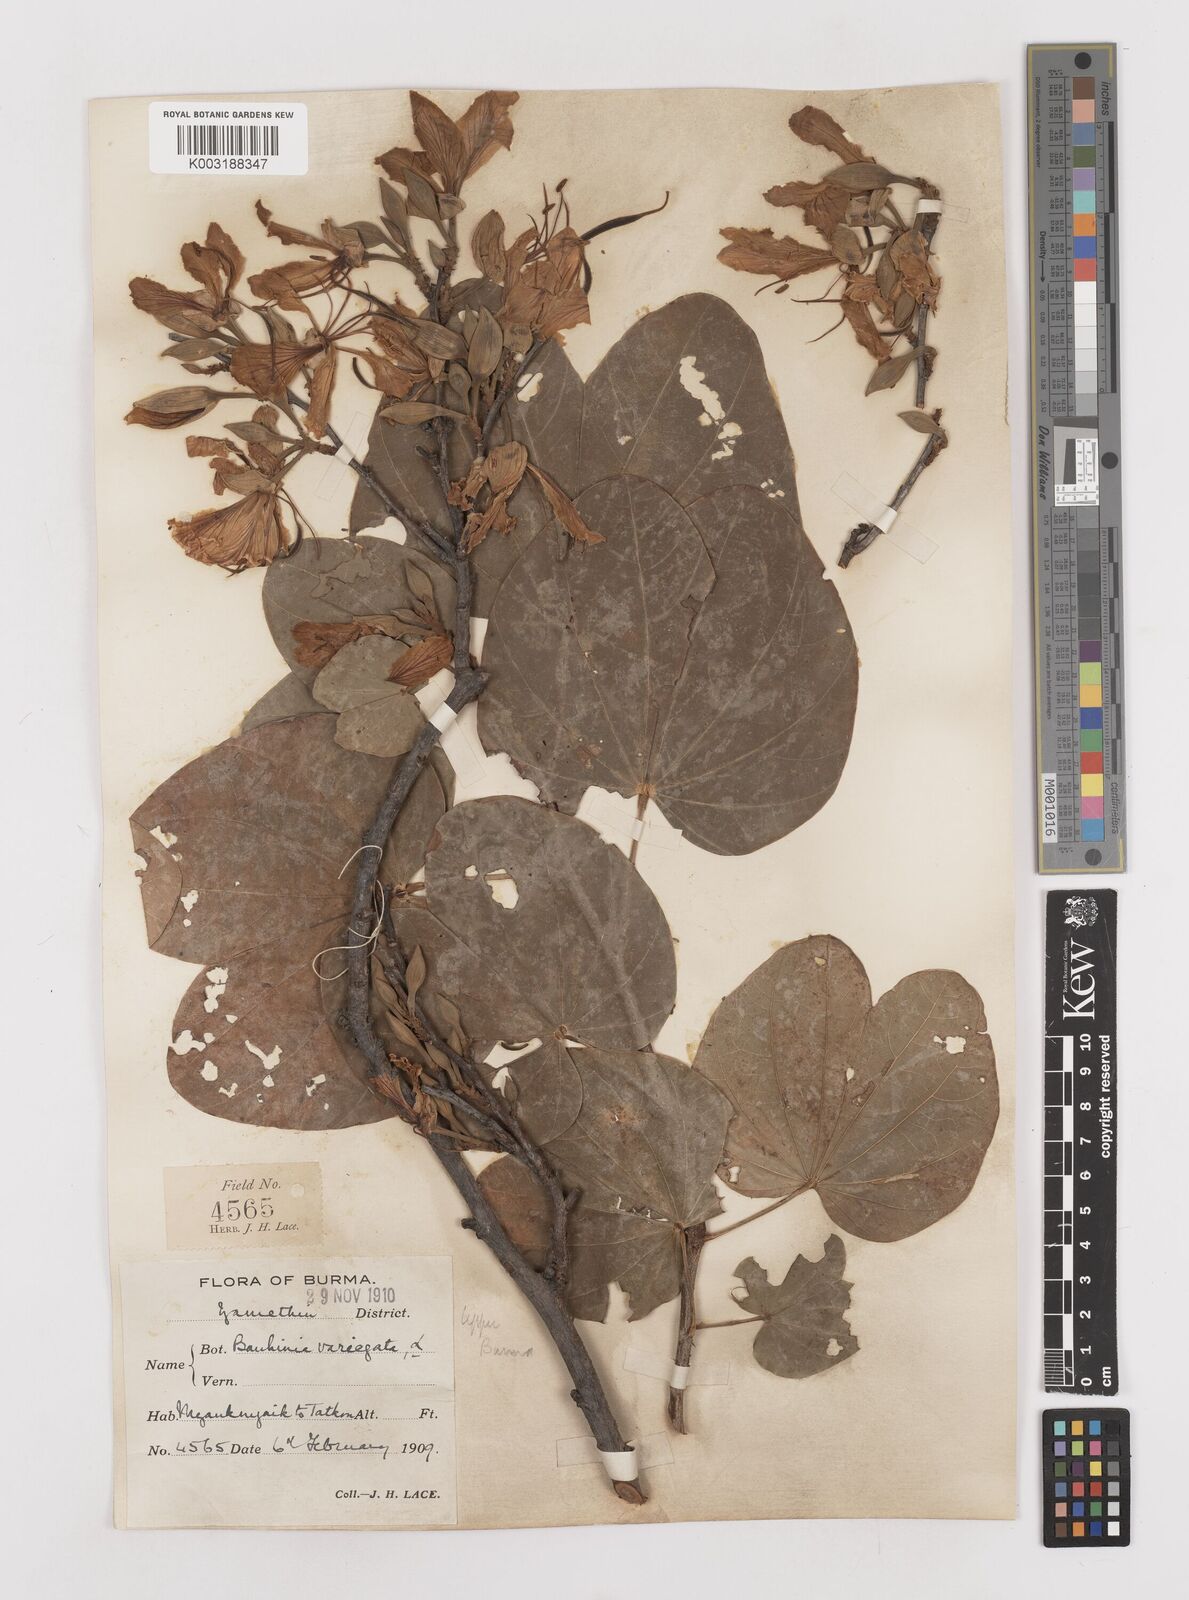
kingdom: Plantae
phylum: Tracheophyta
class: Magnoliopsida
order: Fabales
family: Fabaceae
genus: Bauhinia
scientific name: Bauhinia variegata
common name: Mountain ebony
